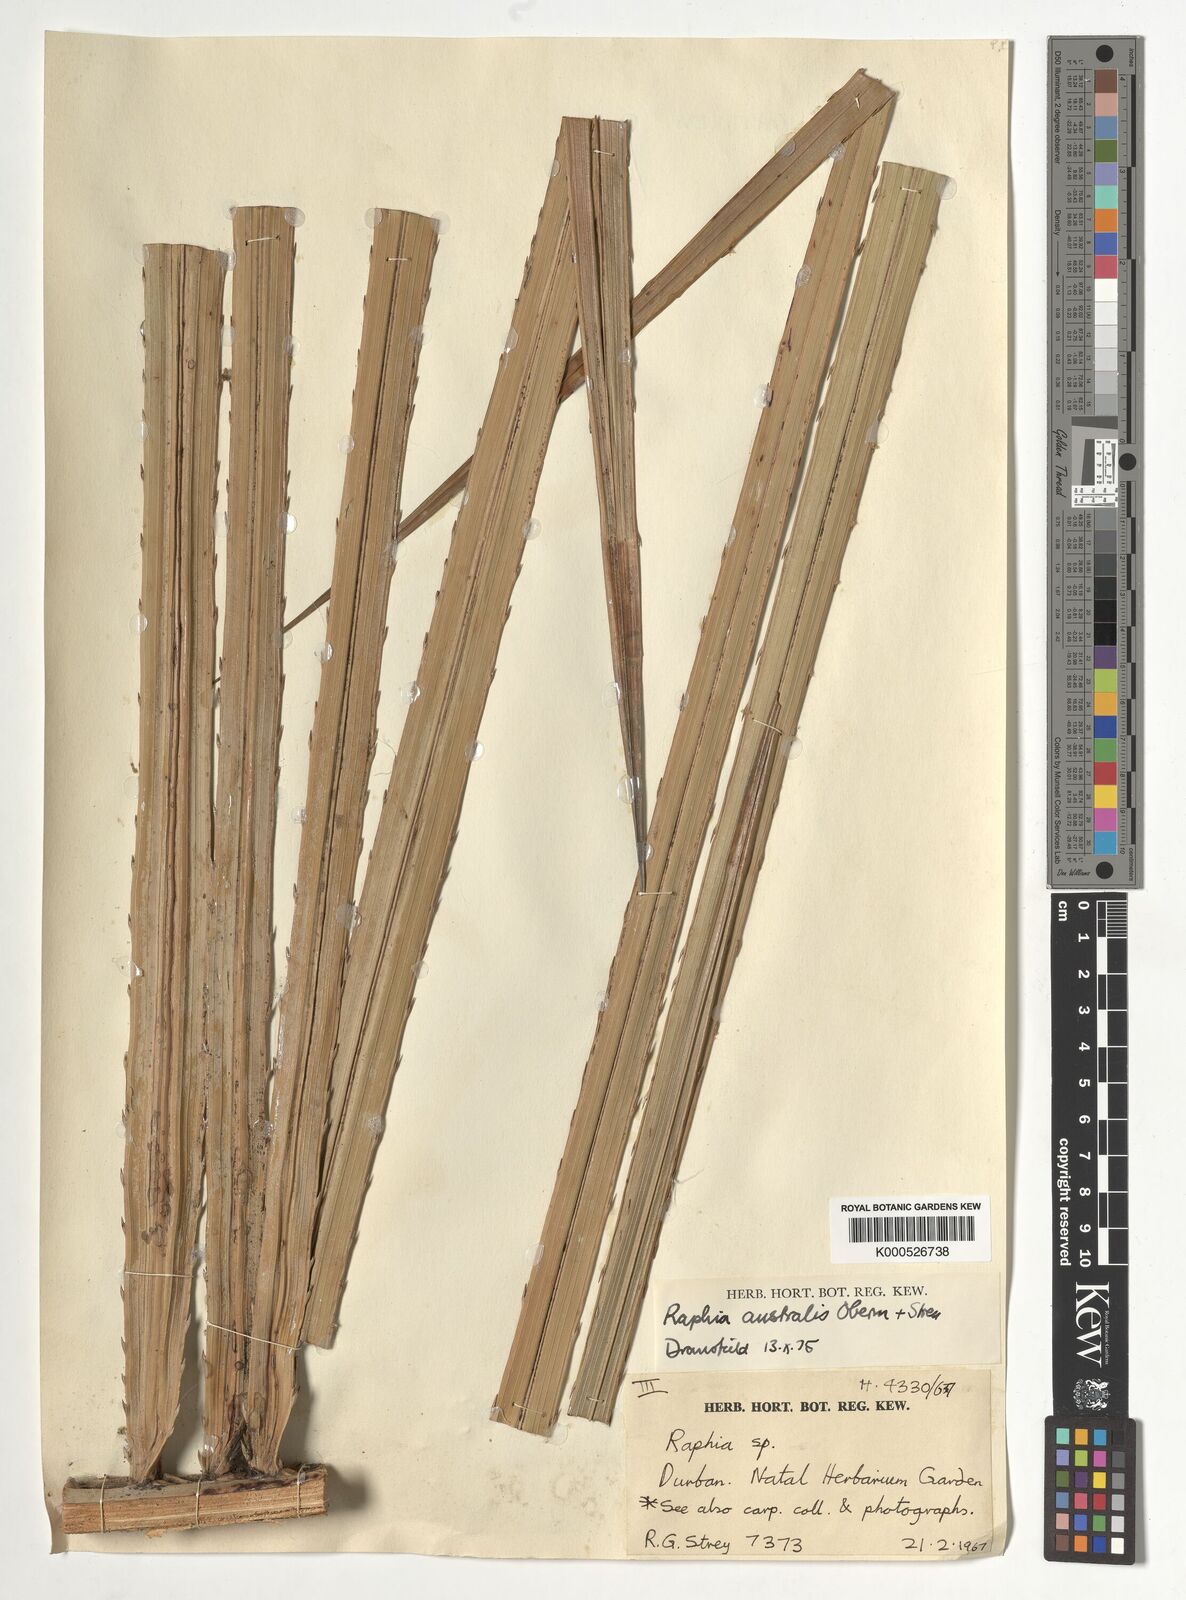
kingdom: Plantae
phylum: Tracheophyta
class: Liliopsida
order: Arecales
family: Arecaceae
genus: Raphia
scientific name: Raphia australis
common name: Giant palm
